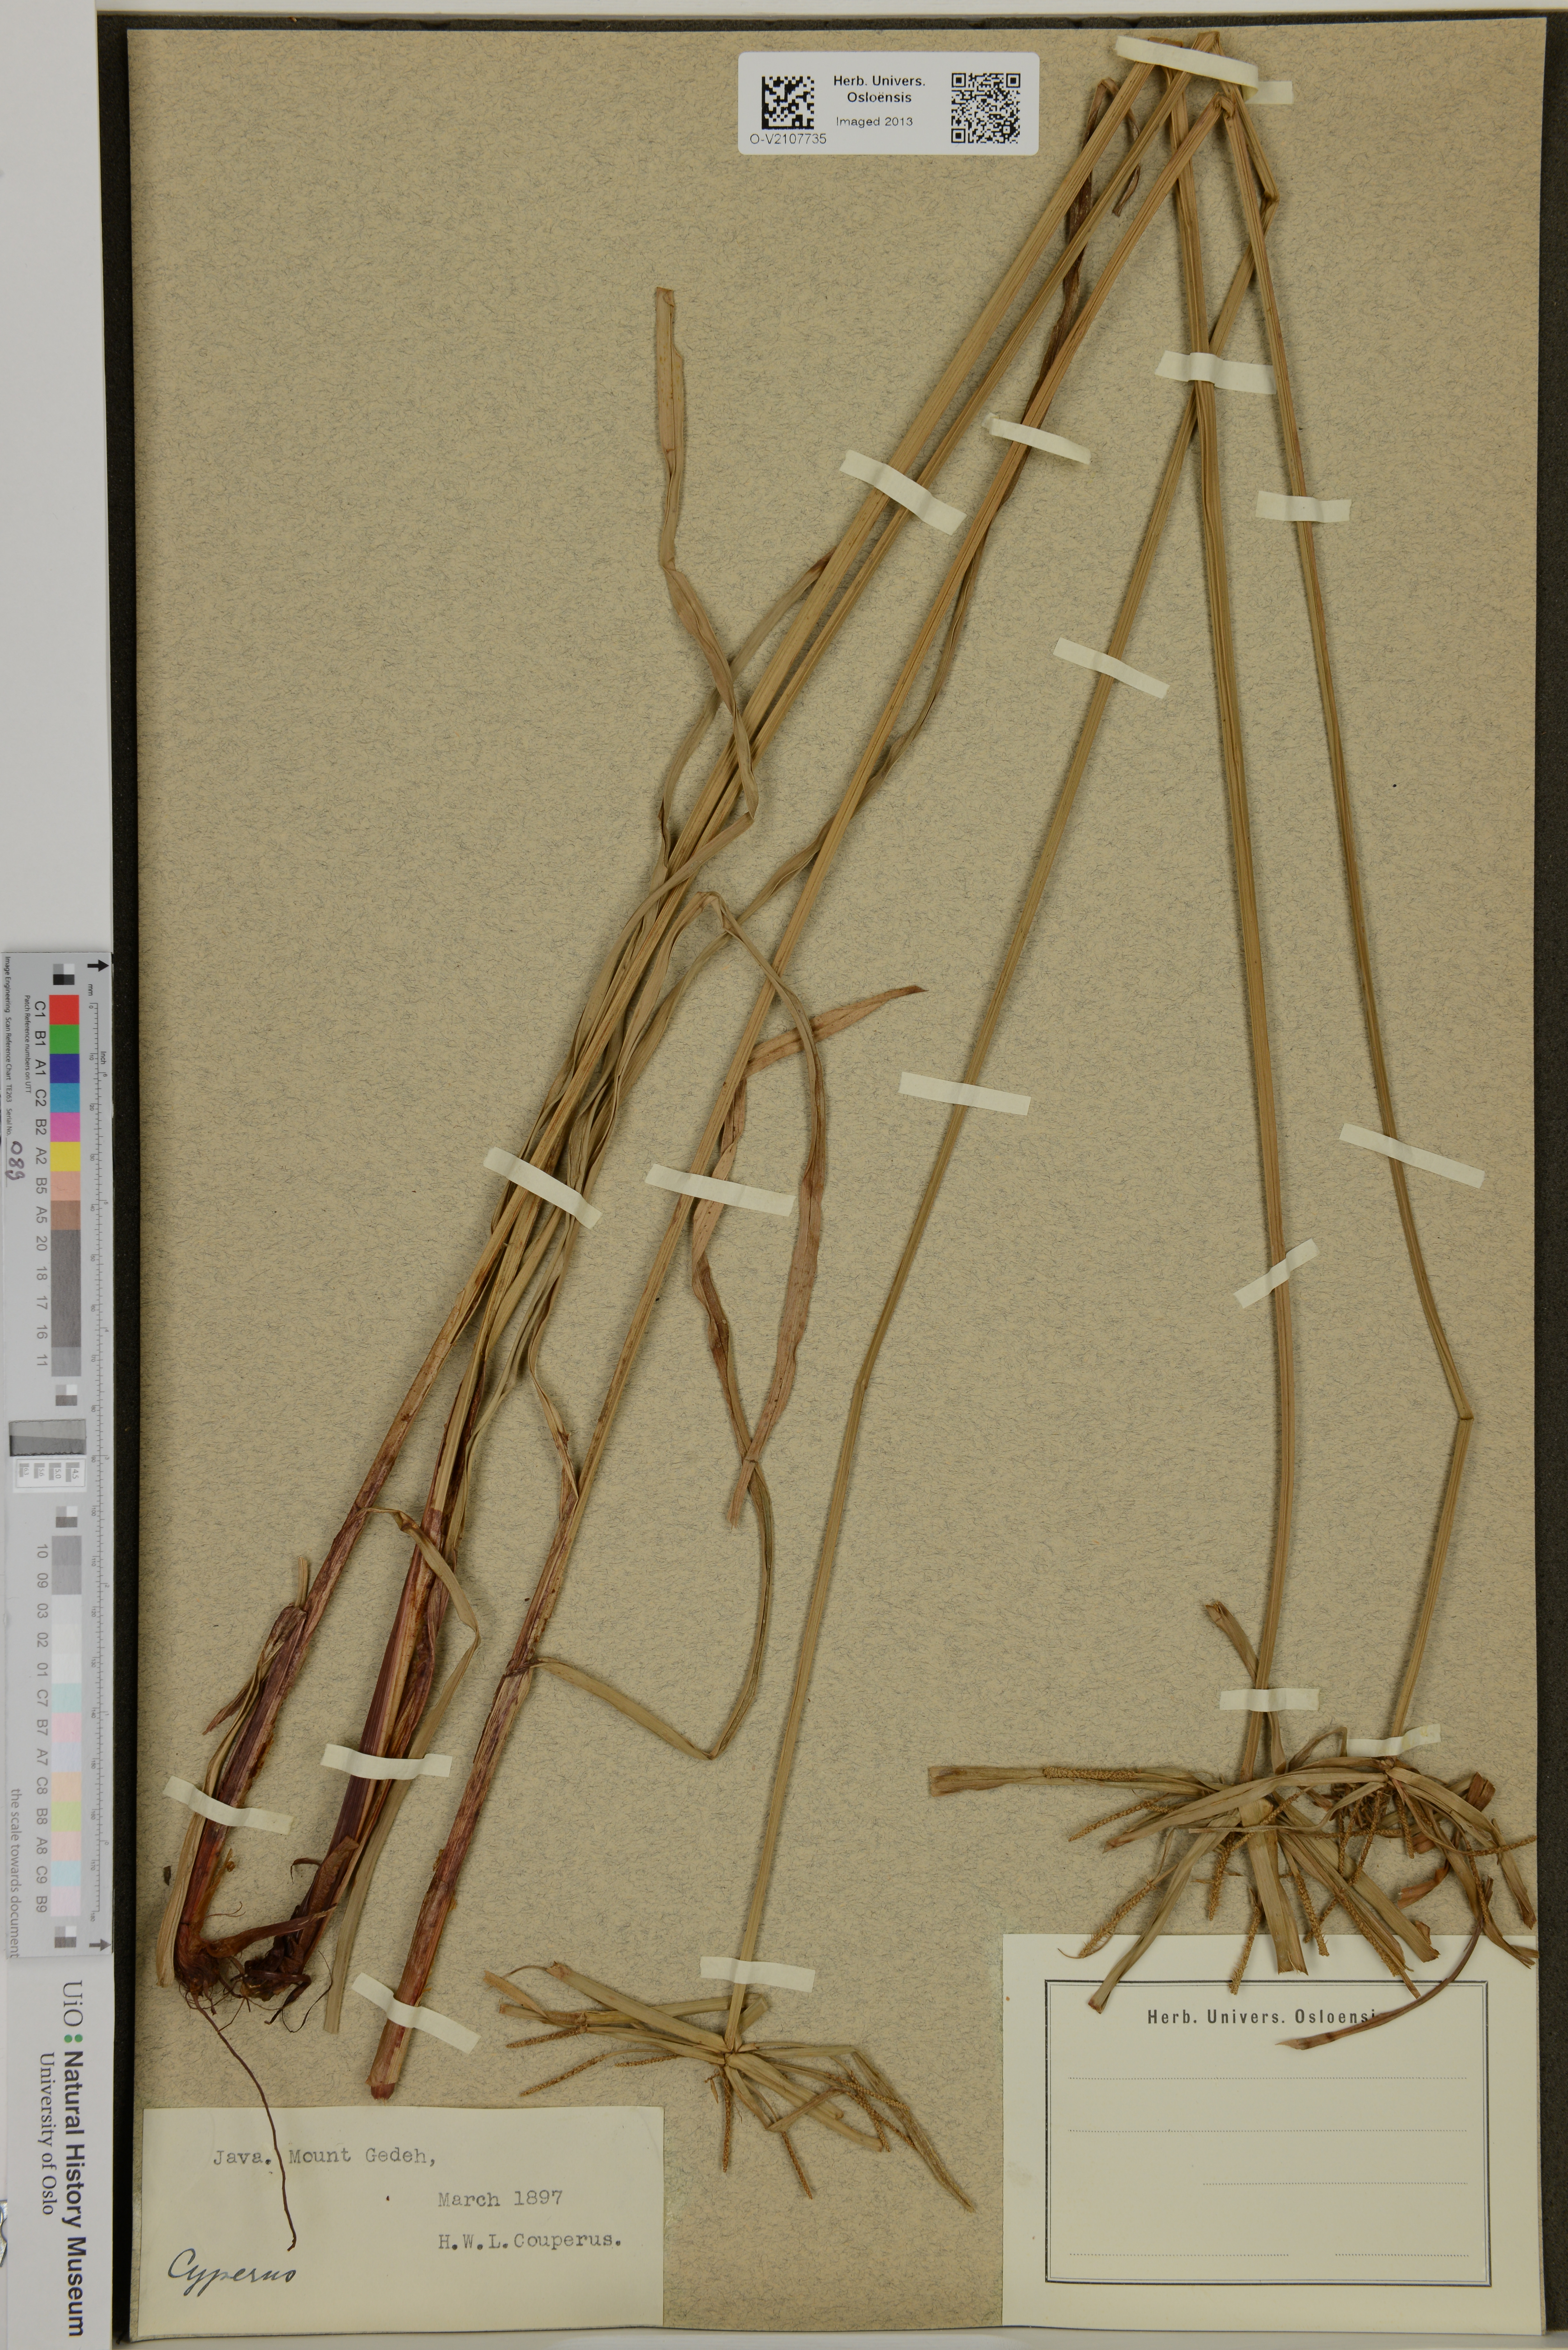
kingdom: Plantae
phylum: Tracheophyta
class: Liliopsida
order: Poales
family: Cyperaceae
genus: Cyperus
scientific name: Cyperus
